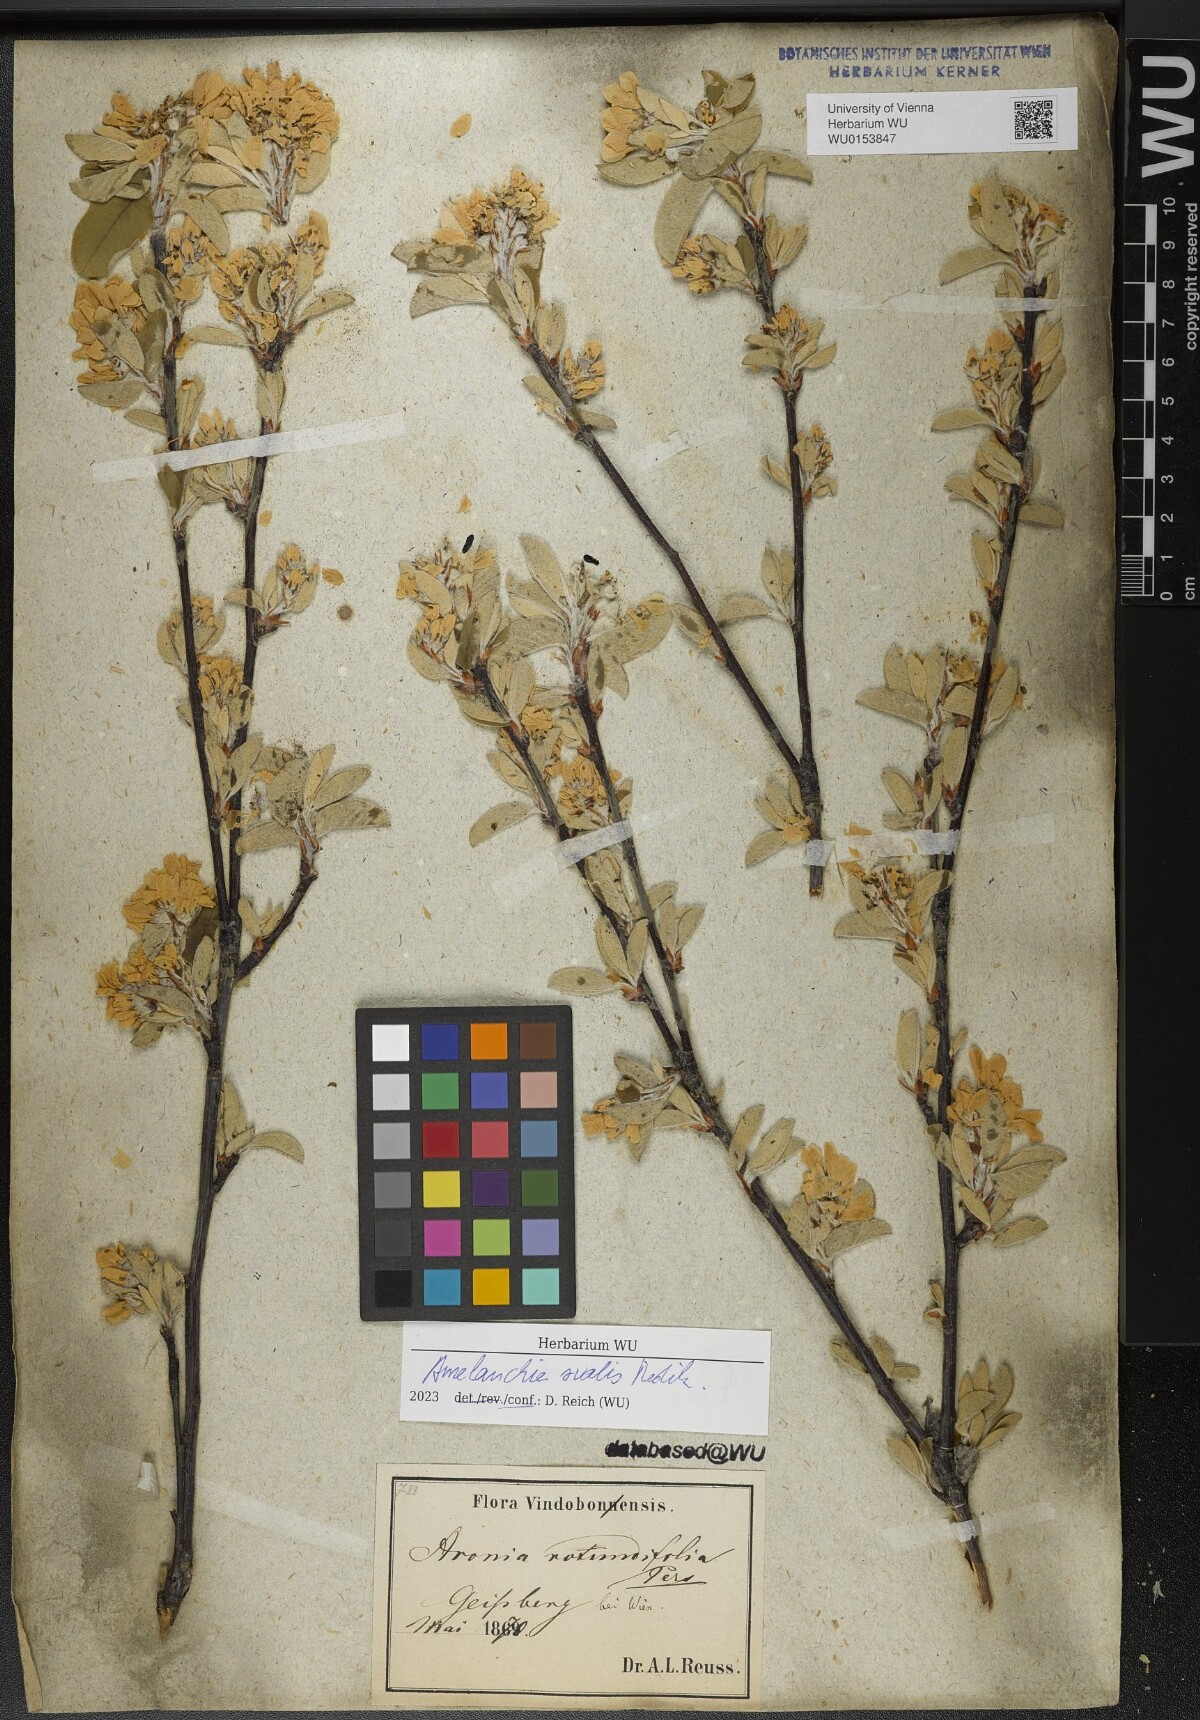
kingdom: Plantae
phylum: Tracheophyta
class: Magnoliopsida
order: Rosales
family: Rosaceae
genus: Amelanchier
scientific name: Amelanchier ovalis
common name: Serviceberry
